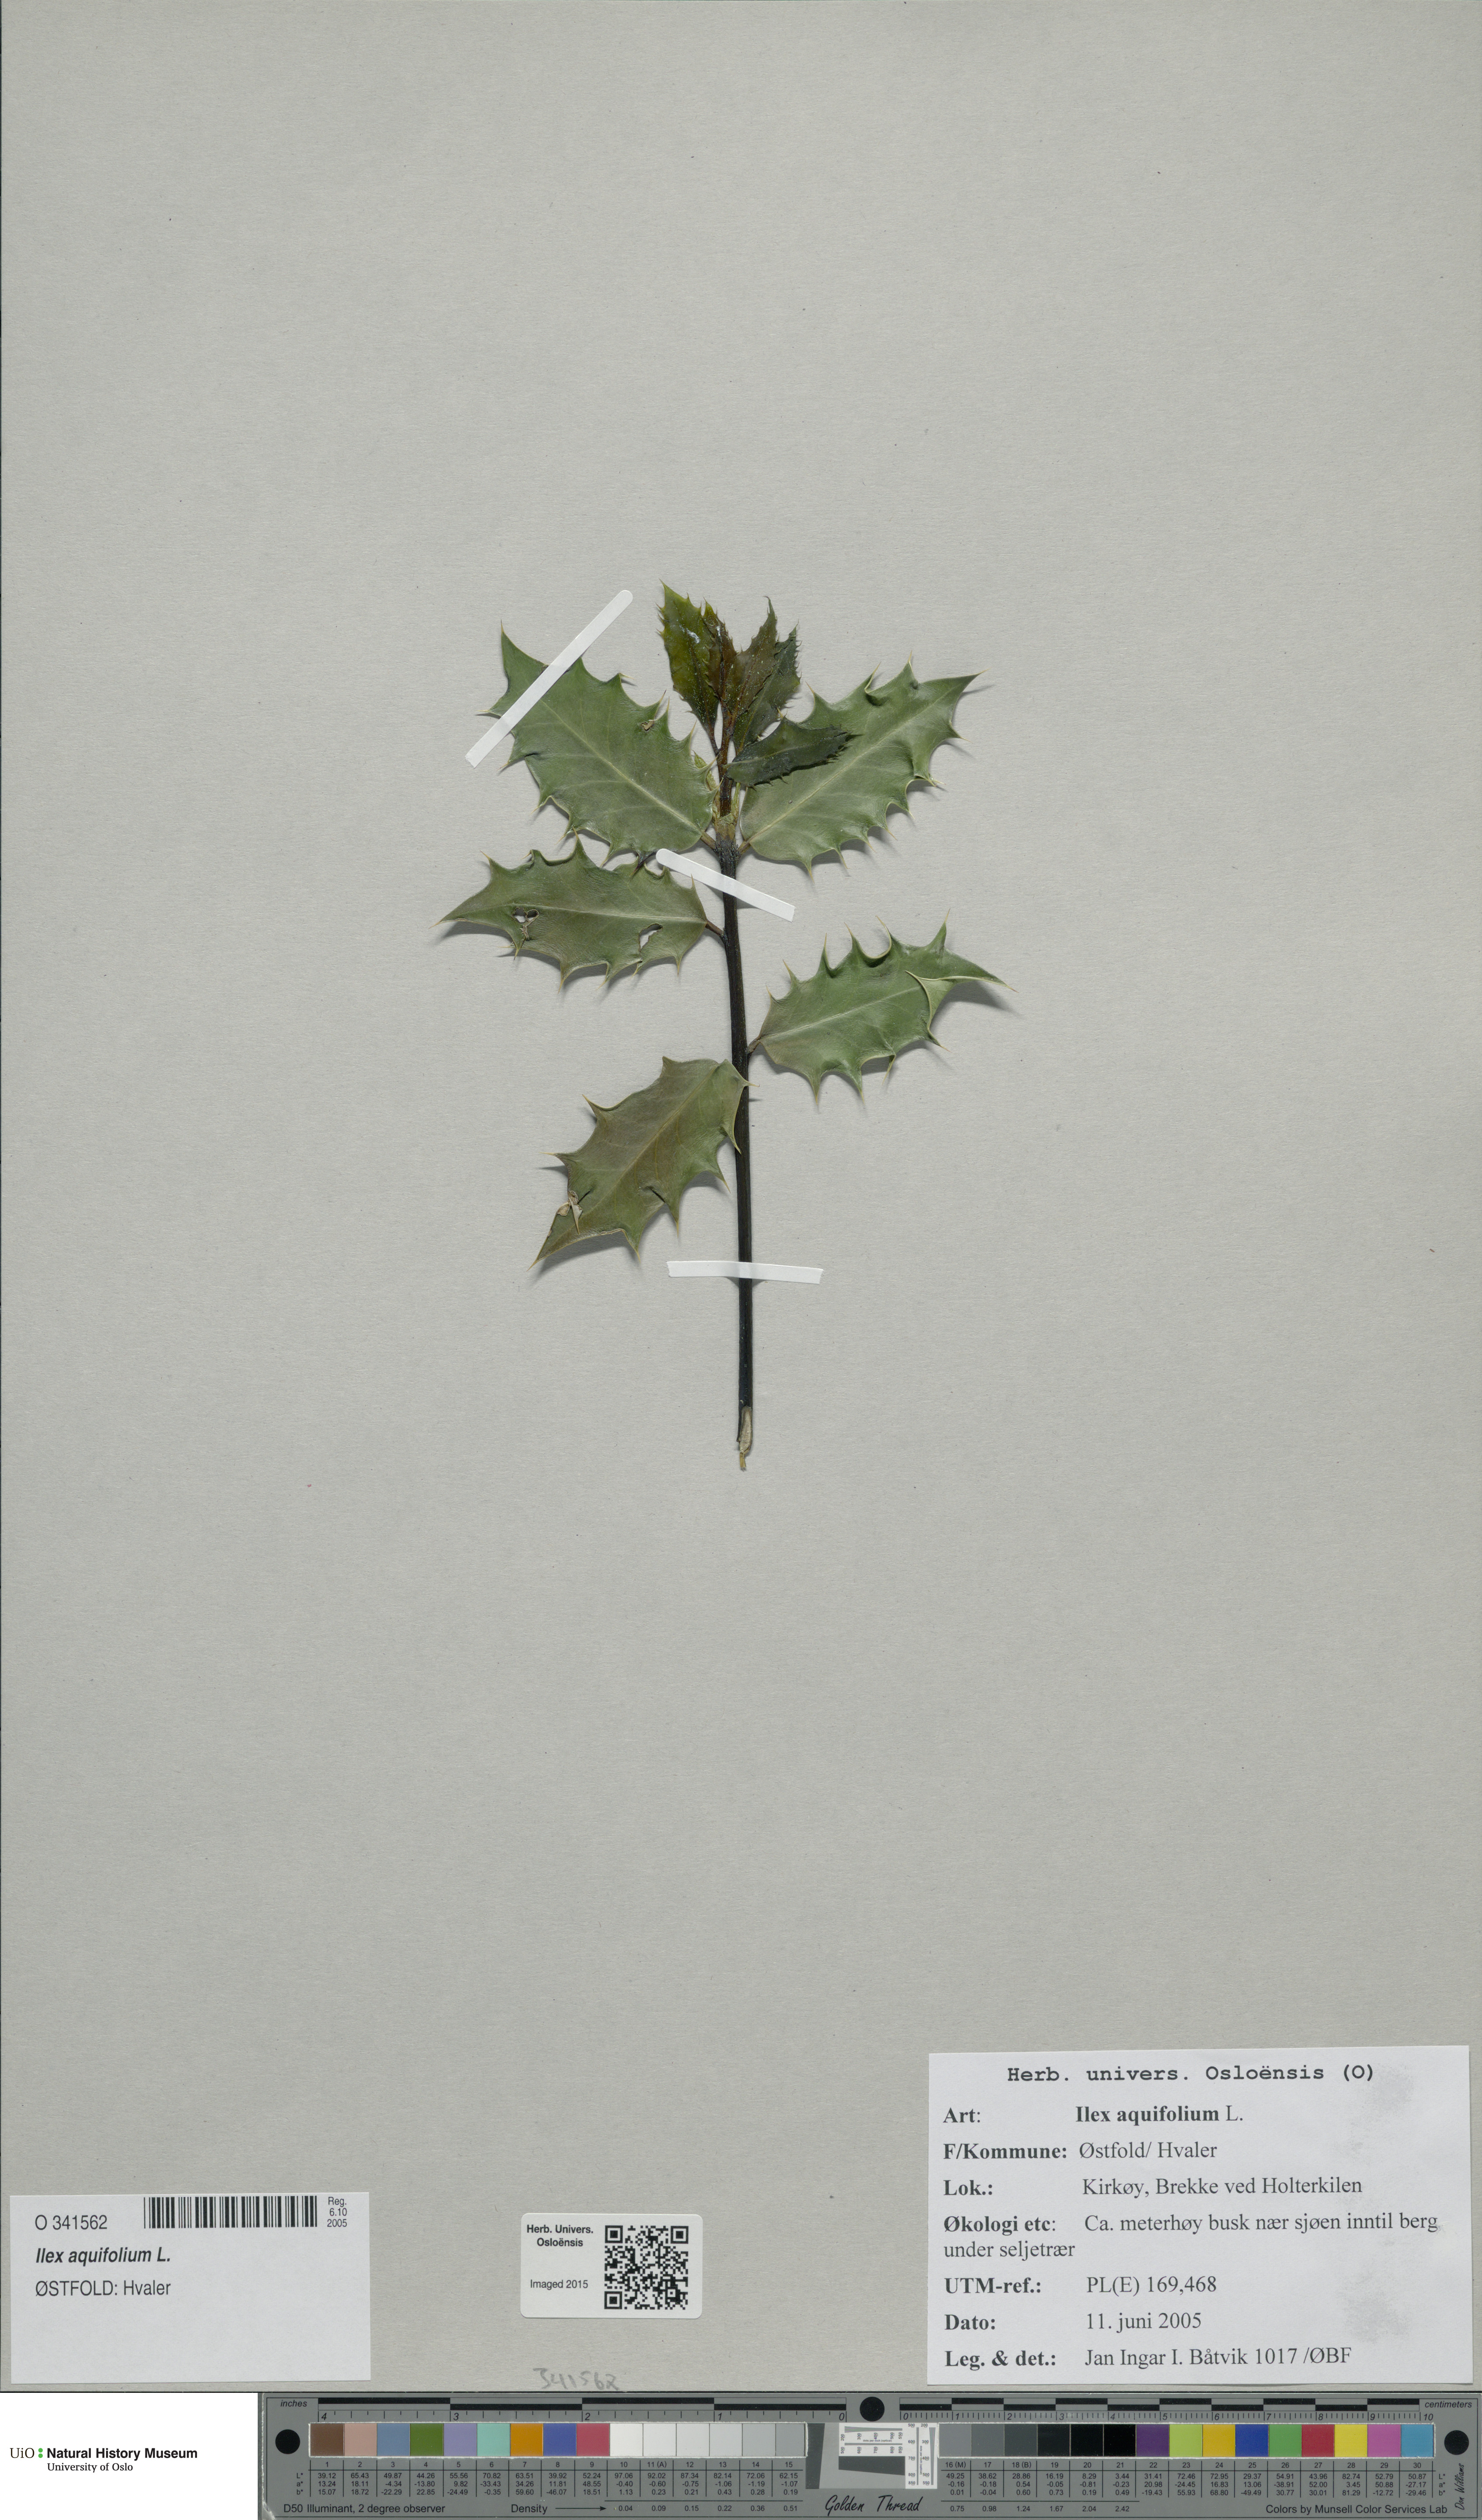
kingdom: Plantae
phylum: Tracheophyta
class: Magnoliopsida
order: Aquifoliales
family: Aquifoliaceae
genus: Ilex
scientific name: Ilex aquifolium
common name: English holly
